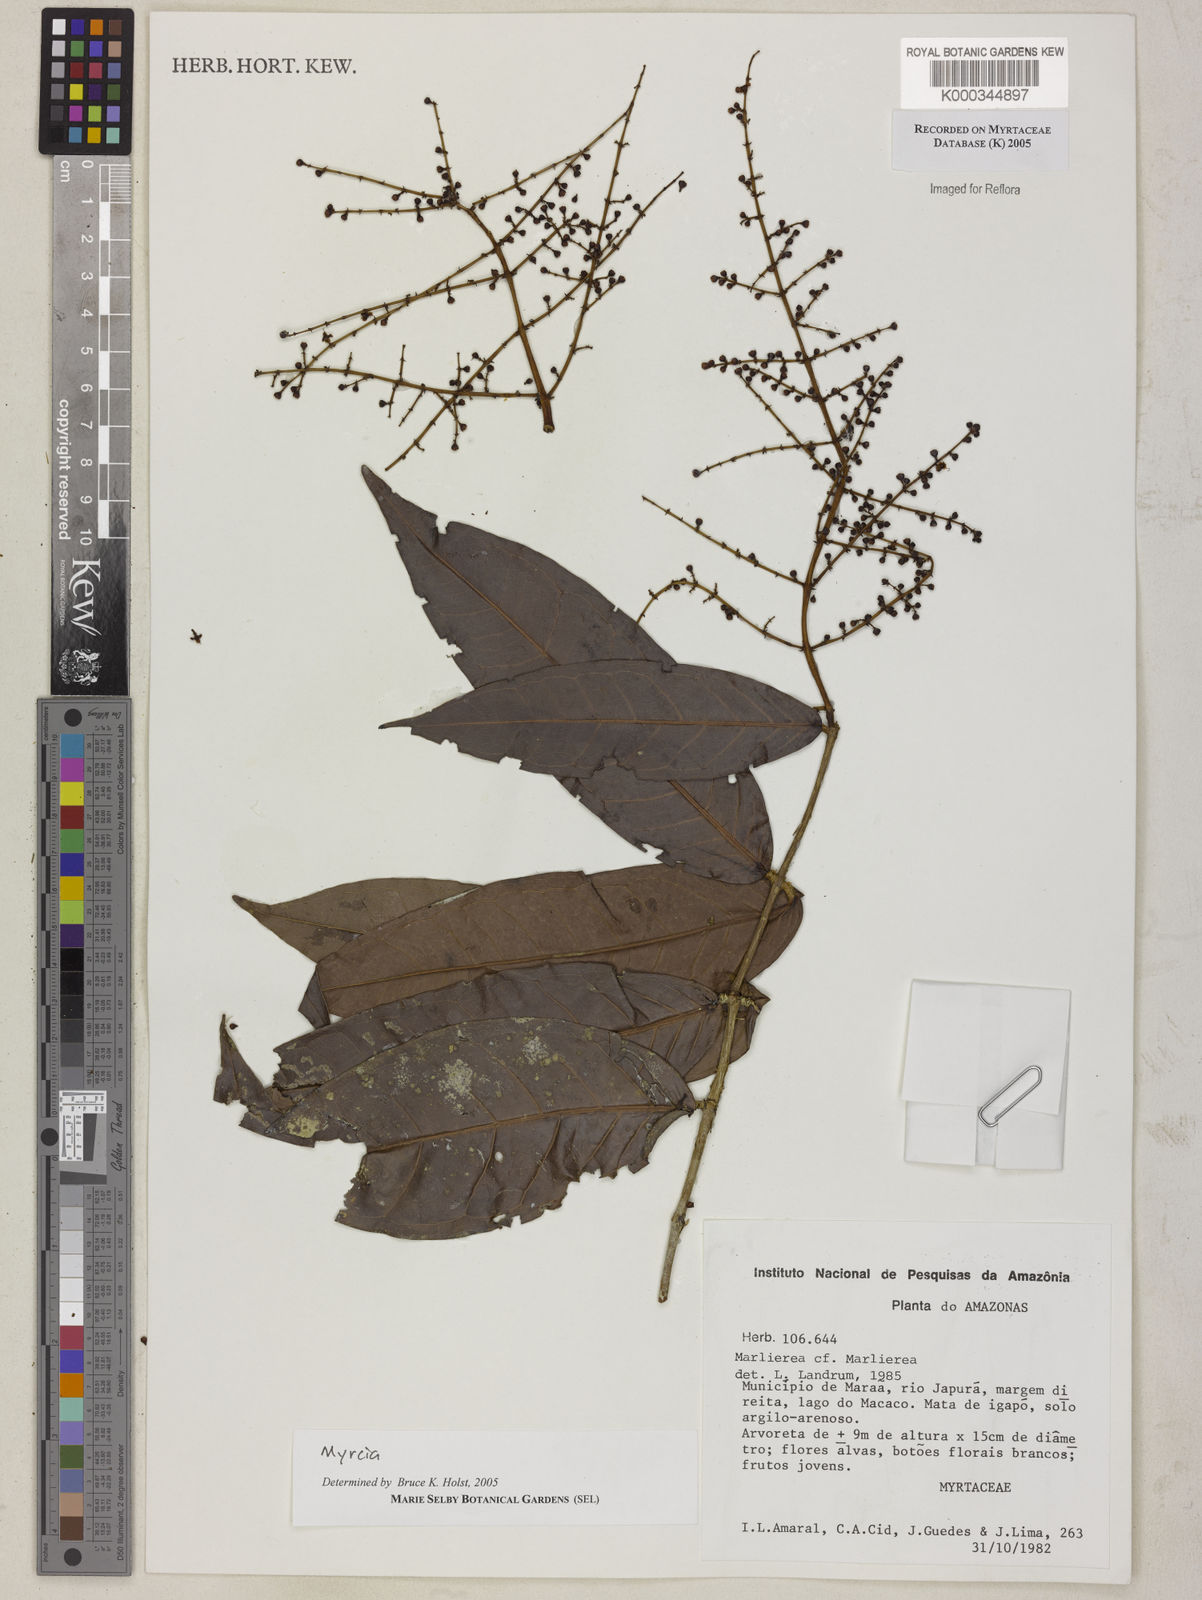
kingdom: Plantae
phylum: Tracheophyta
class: Magnoliopsida
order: Myrtales
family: Myrtaceae
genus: Myrcia
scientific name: Myrcia
